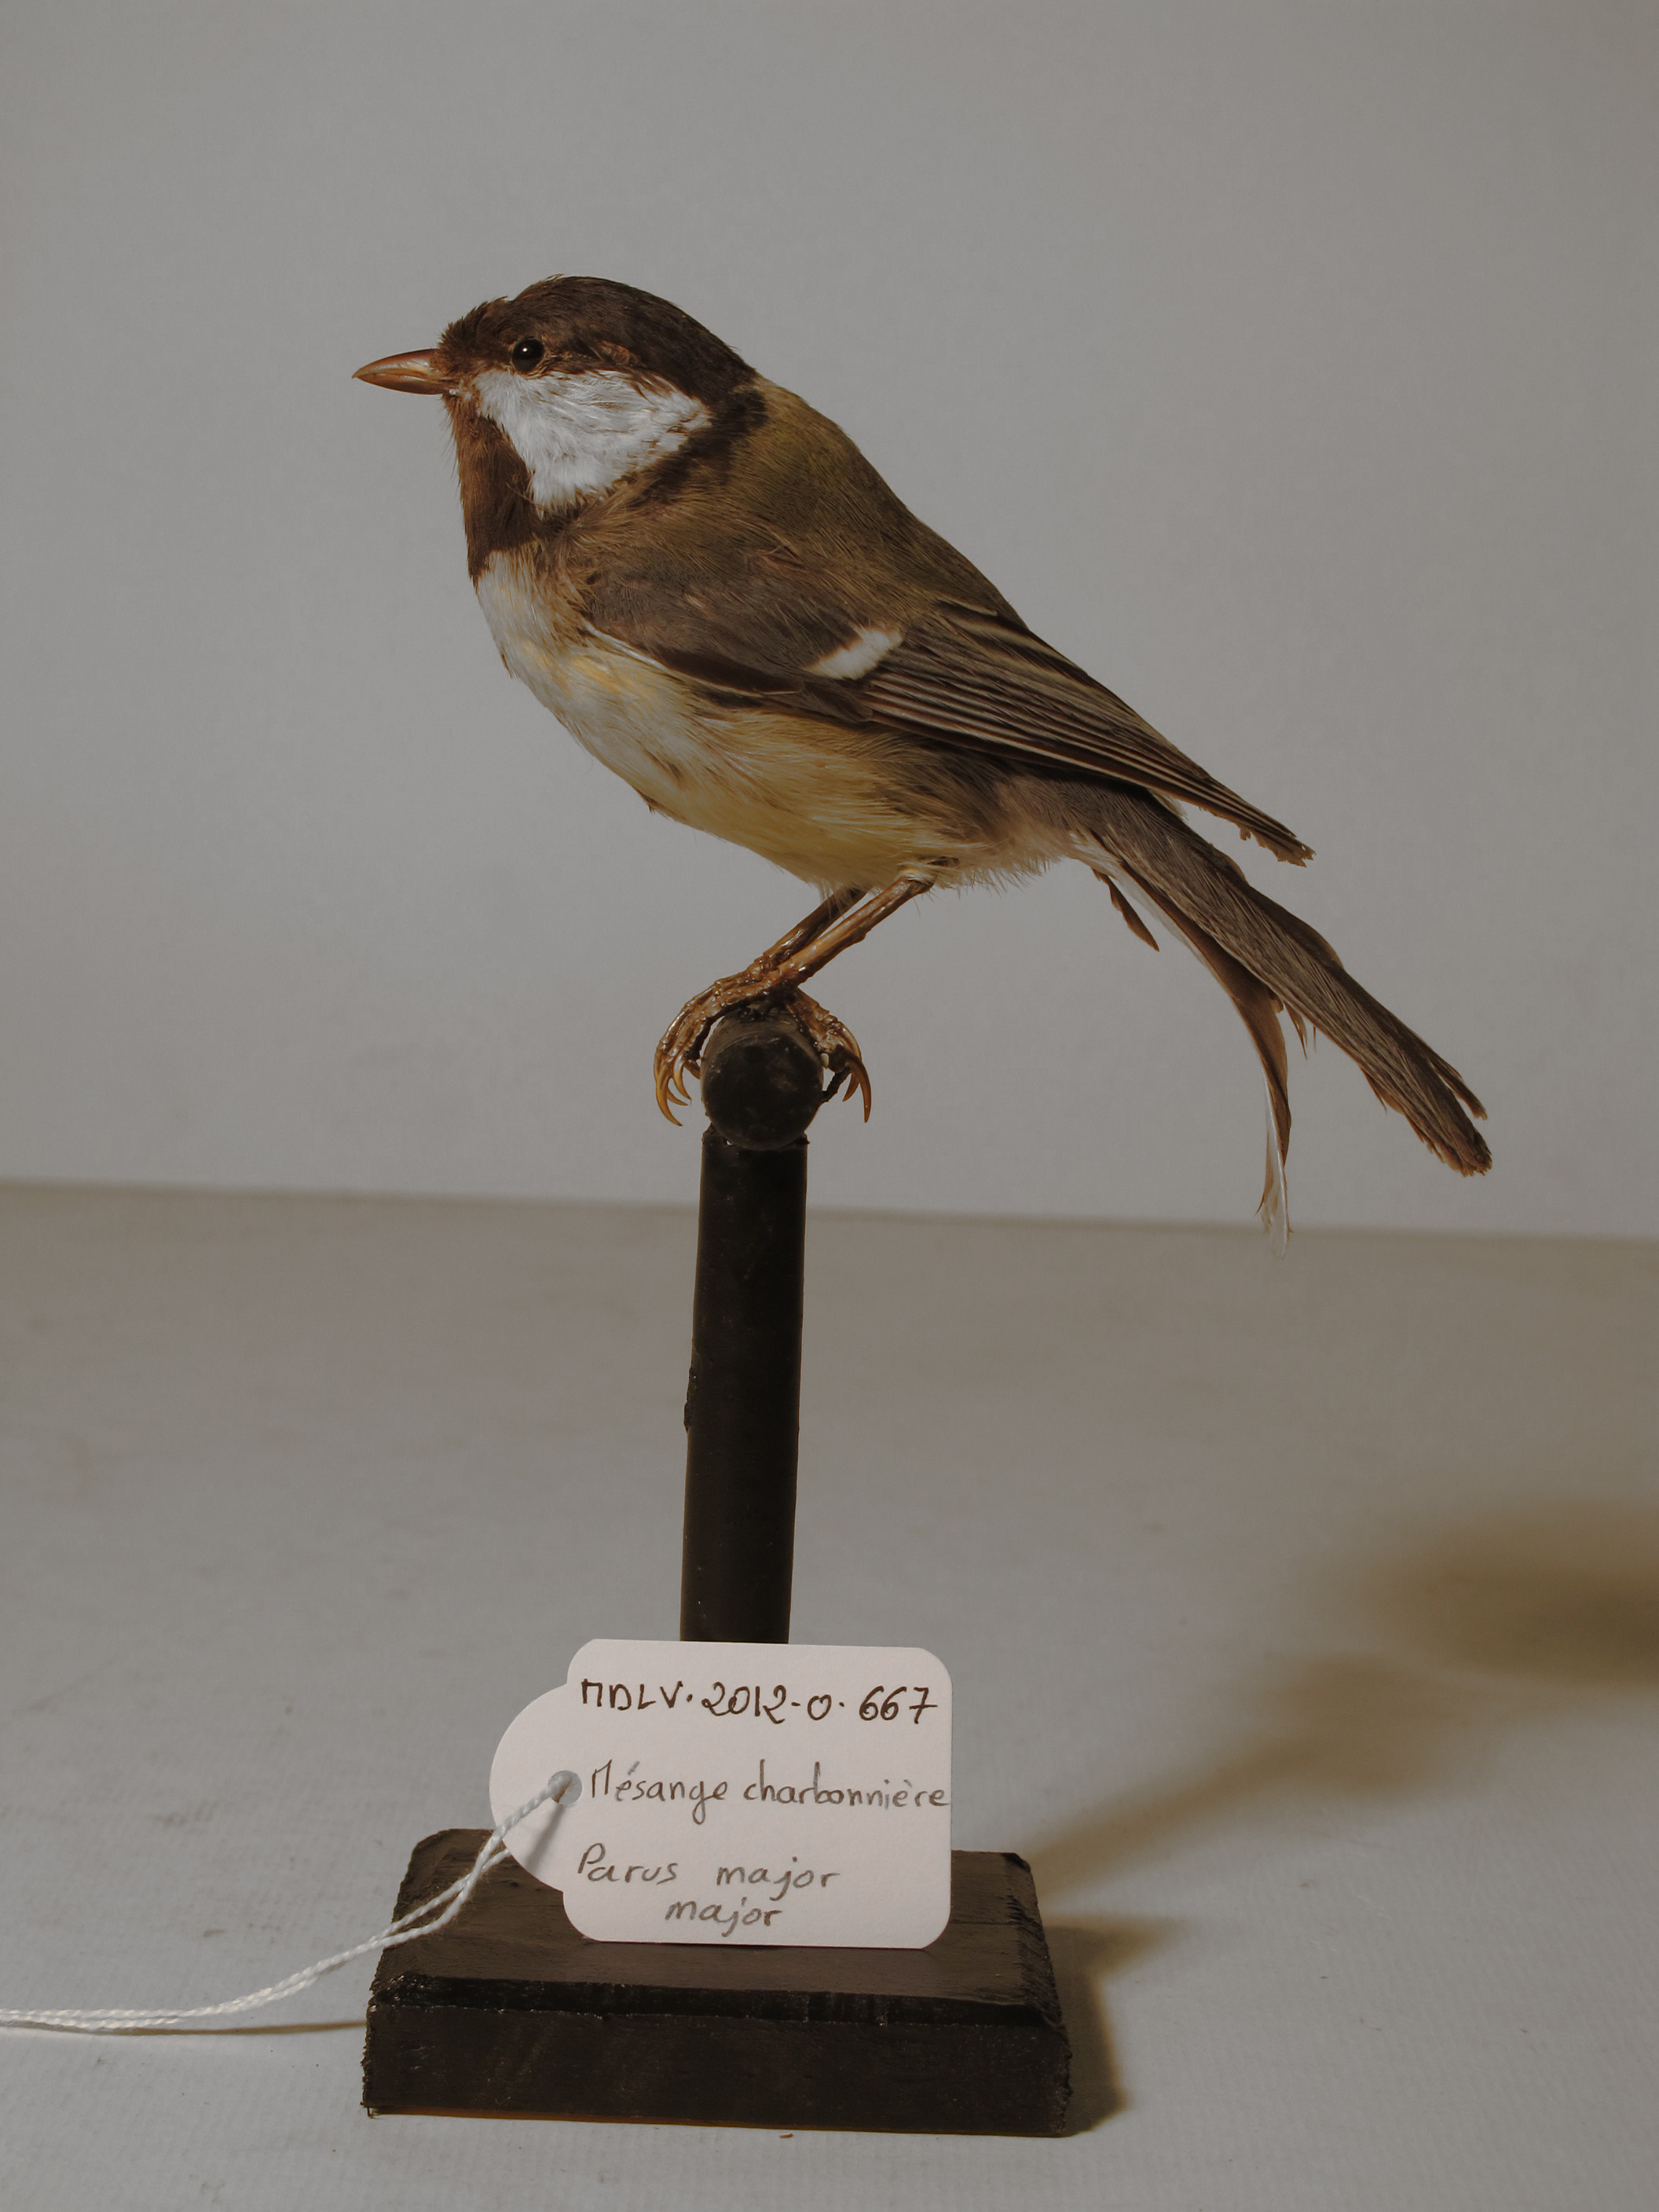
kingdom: Animalia
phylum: Chordata
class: Aves
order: Passeriformes
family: Paridae
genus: Parus
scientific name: Parus major
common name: Great Tit
